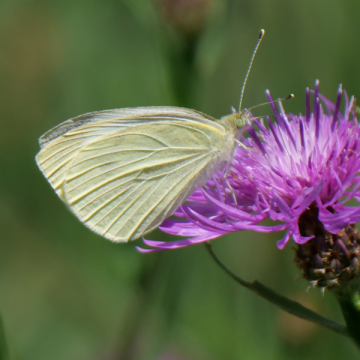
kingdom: Animalia
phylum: Arthropoda
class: Insecta
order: Lepidoptera
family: Pieridae
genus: Pieris
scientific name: Pieris rapae
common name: Cabbage White
